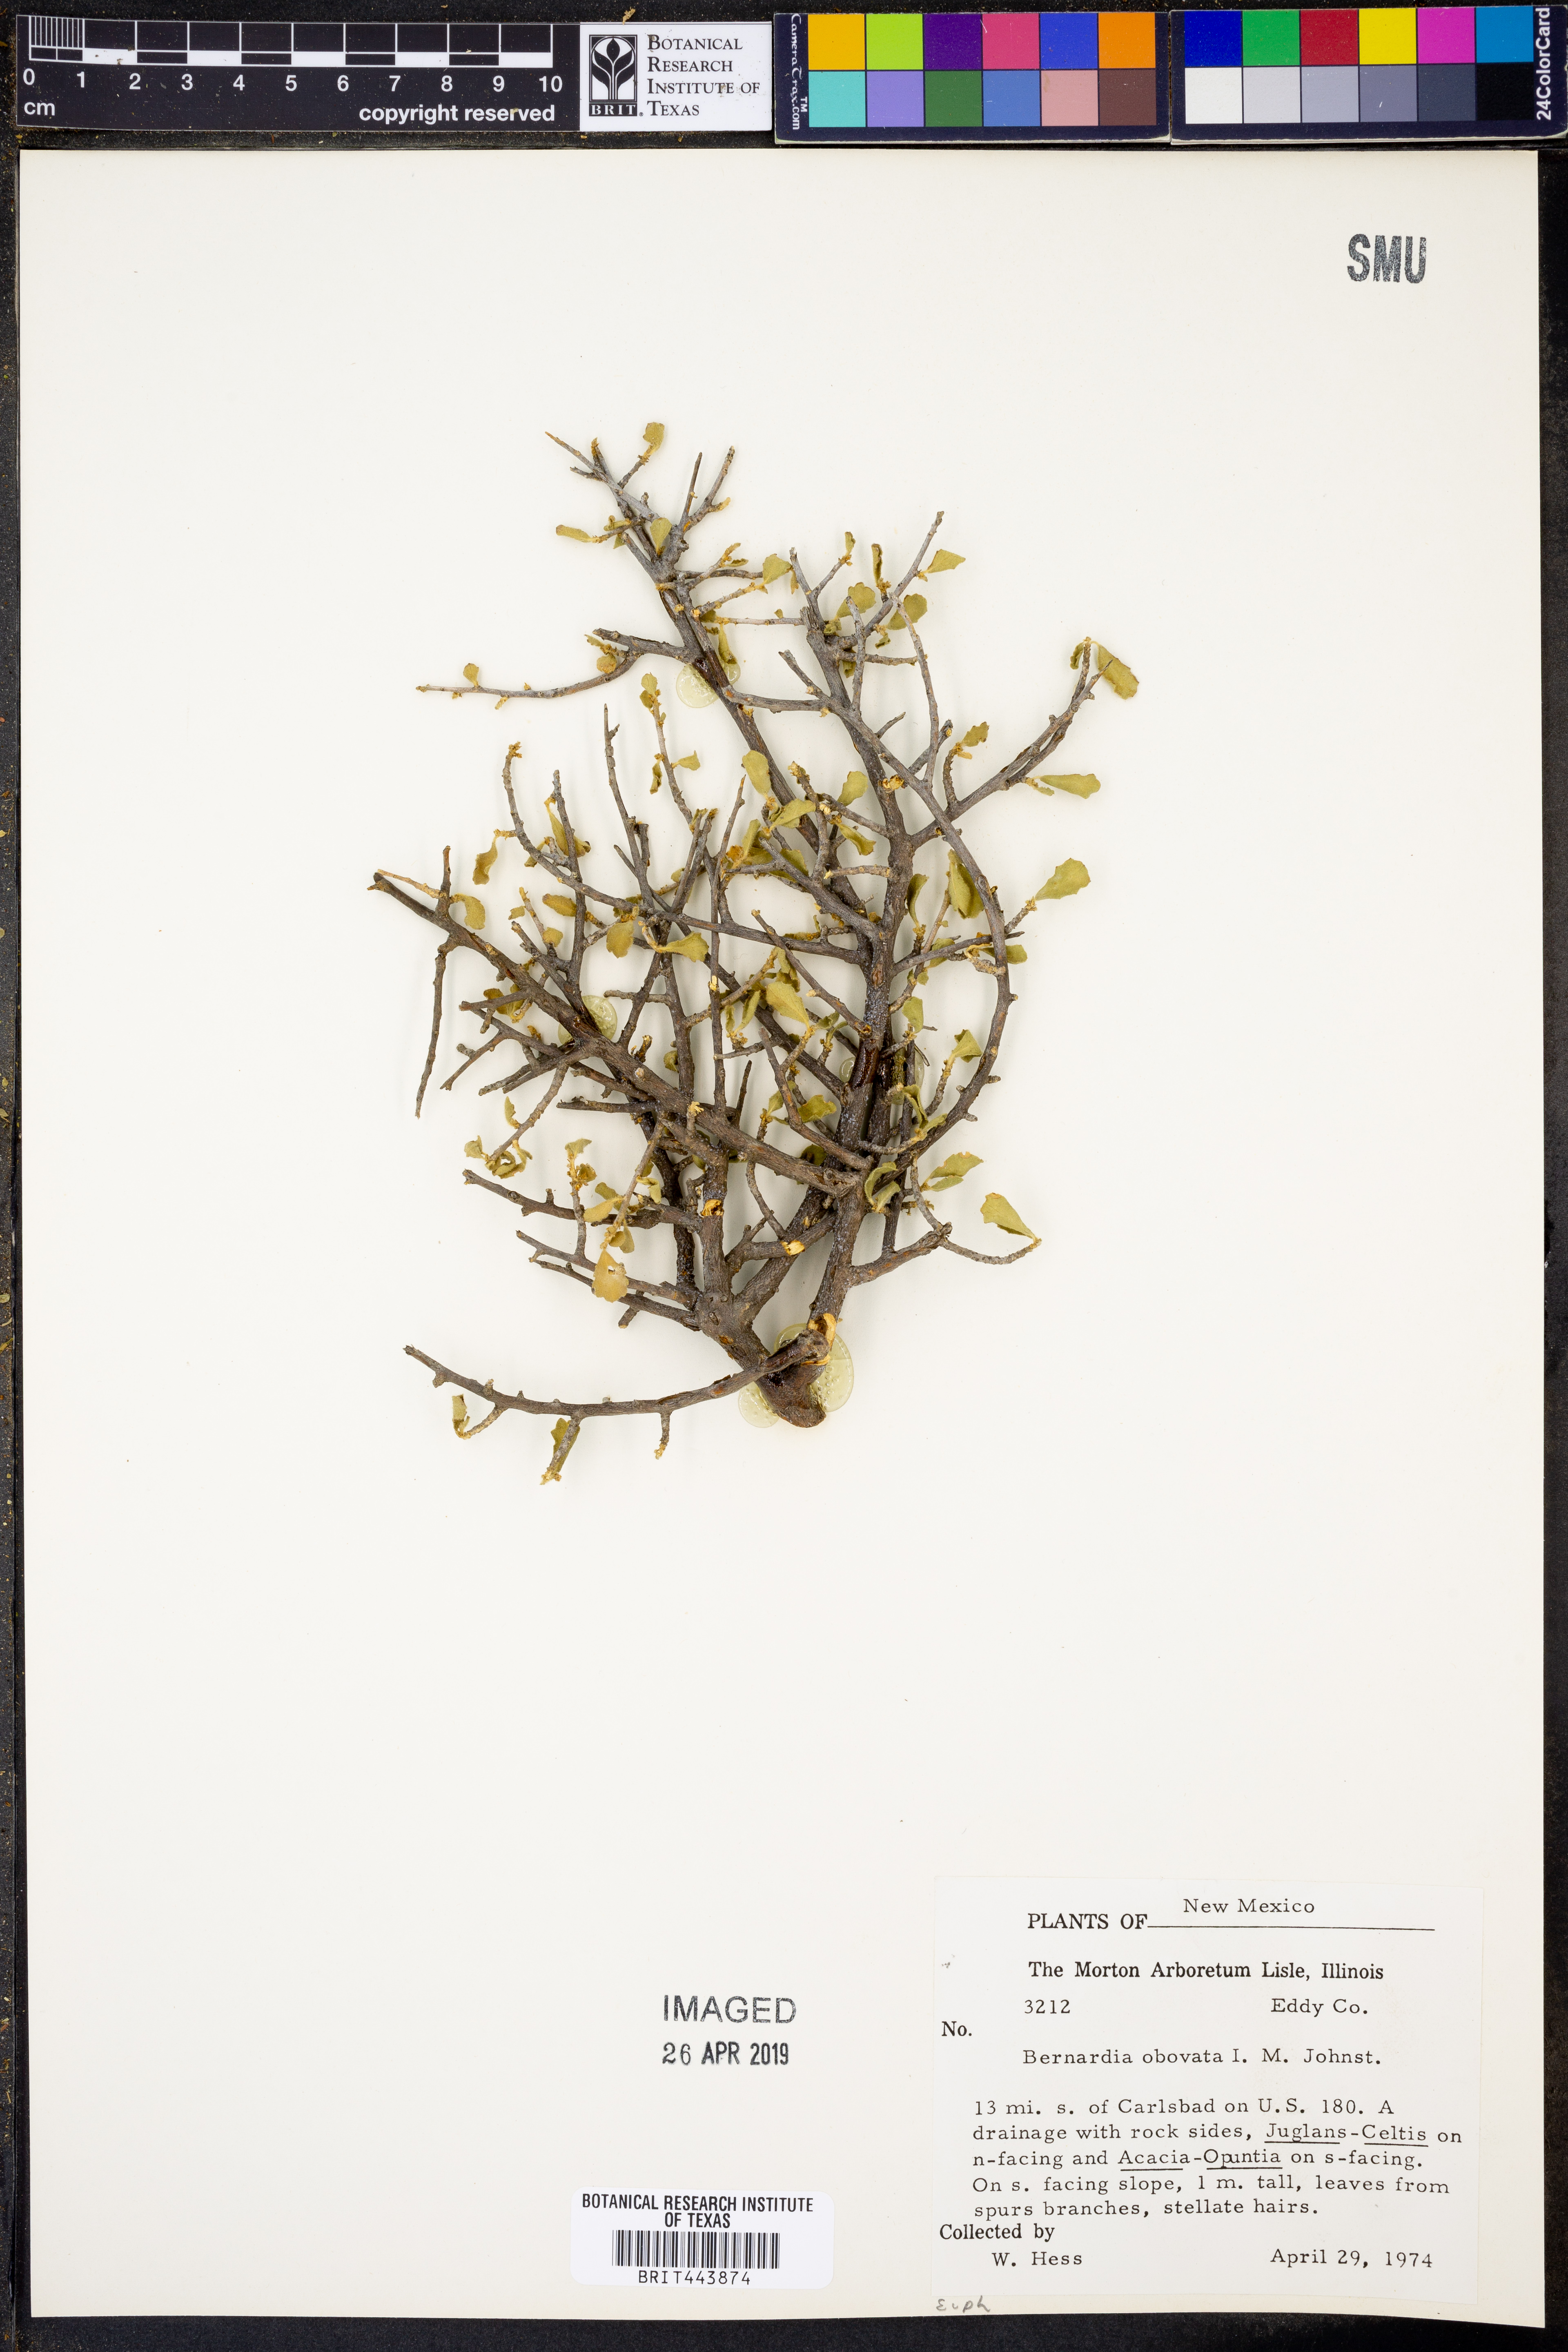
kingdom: Plantae
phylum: Tracheophyta
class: Magnoliopsida
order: Malpighiales
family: Euphorbiaceae
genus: Bernardia
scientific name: Bernardia obovata
